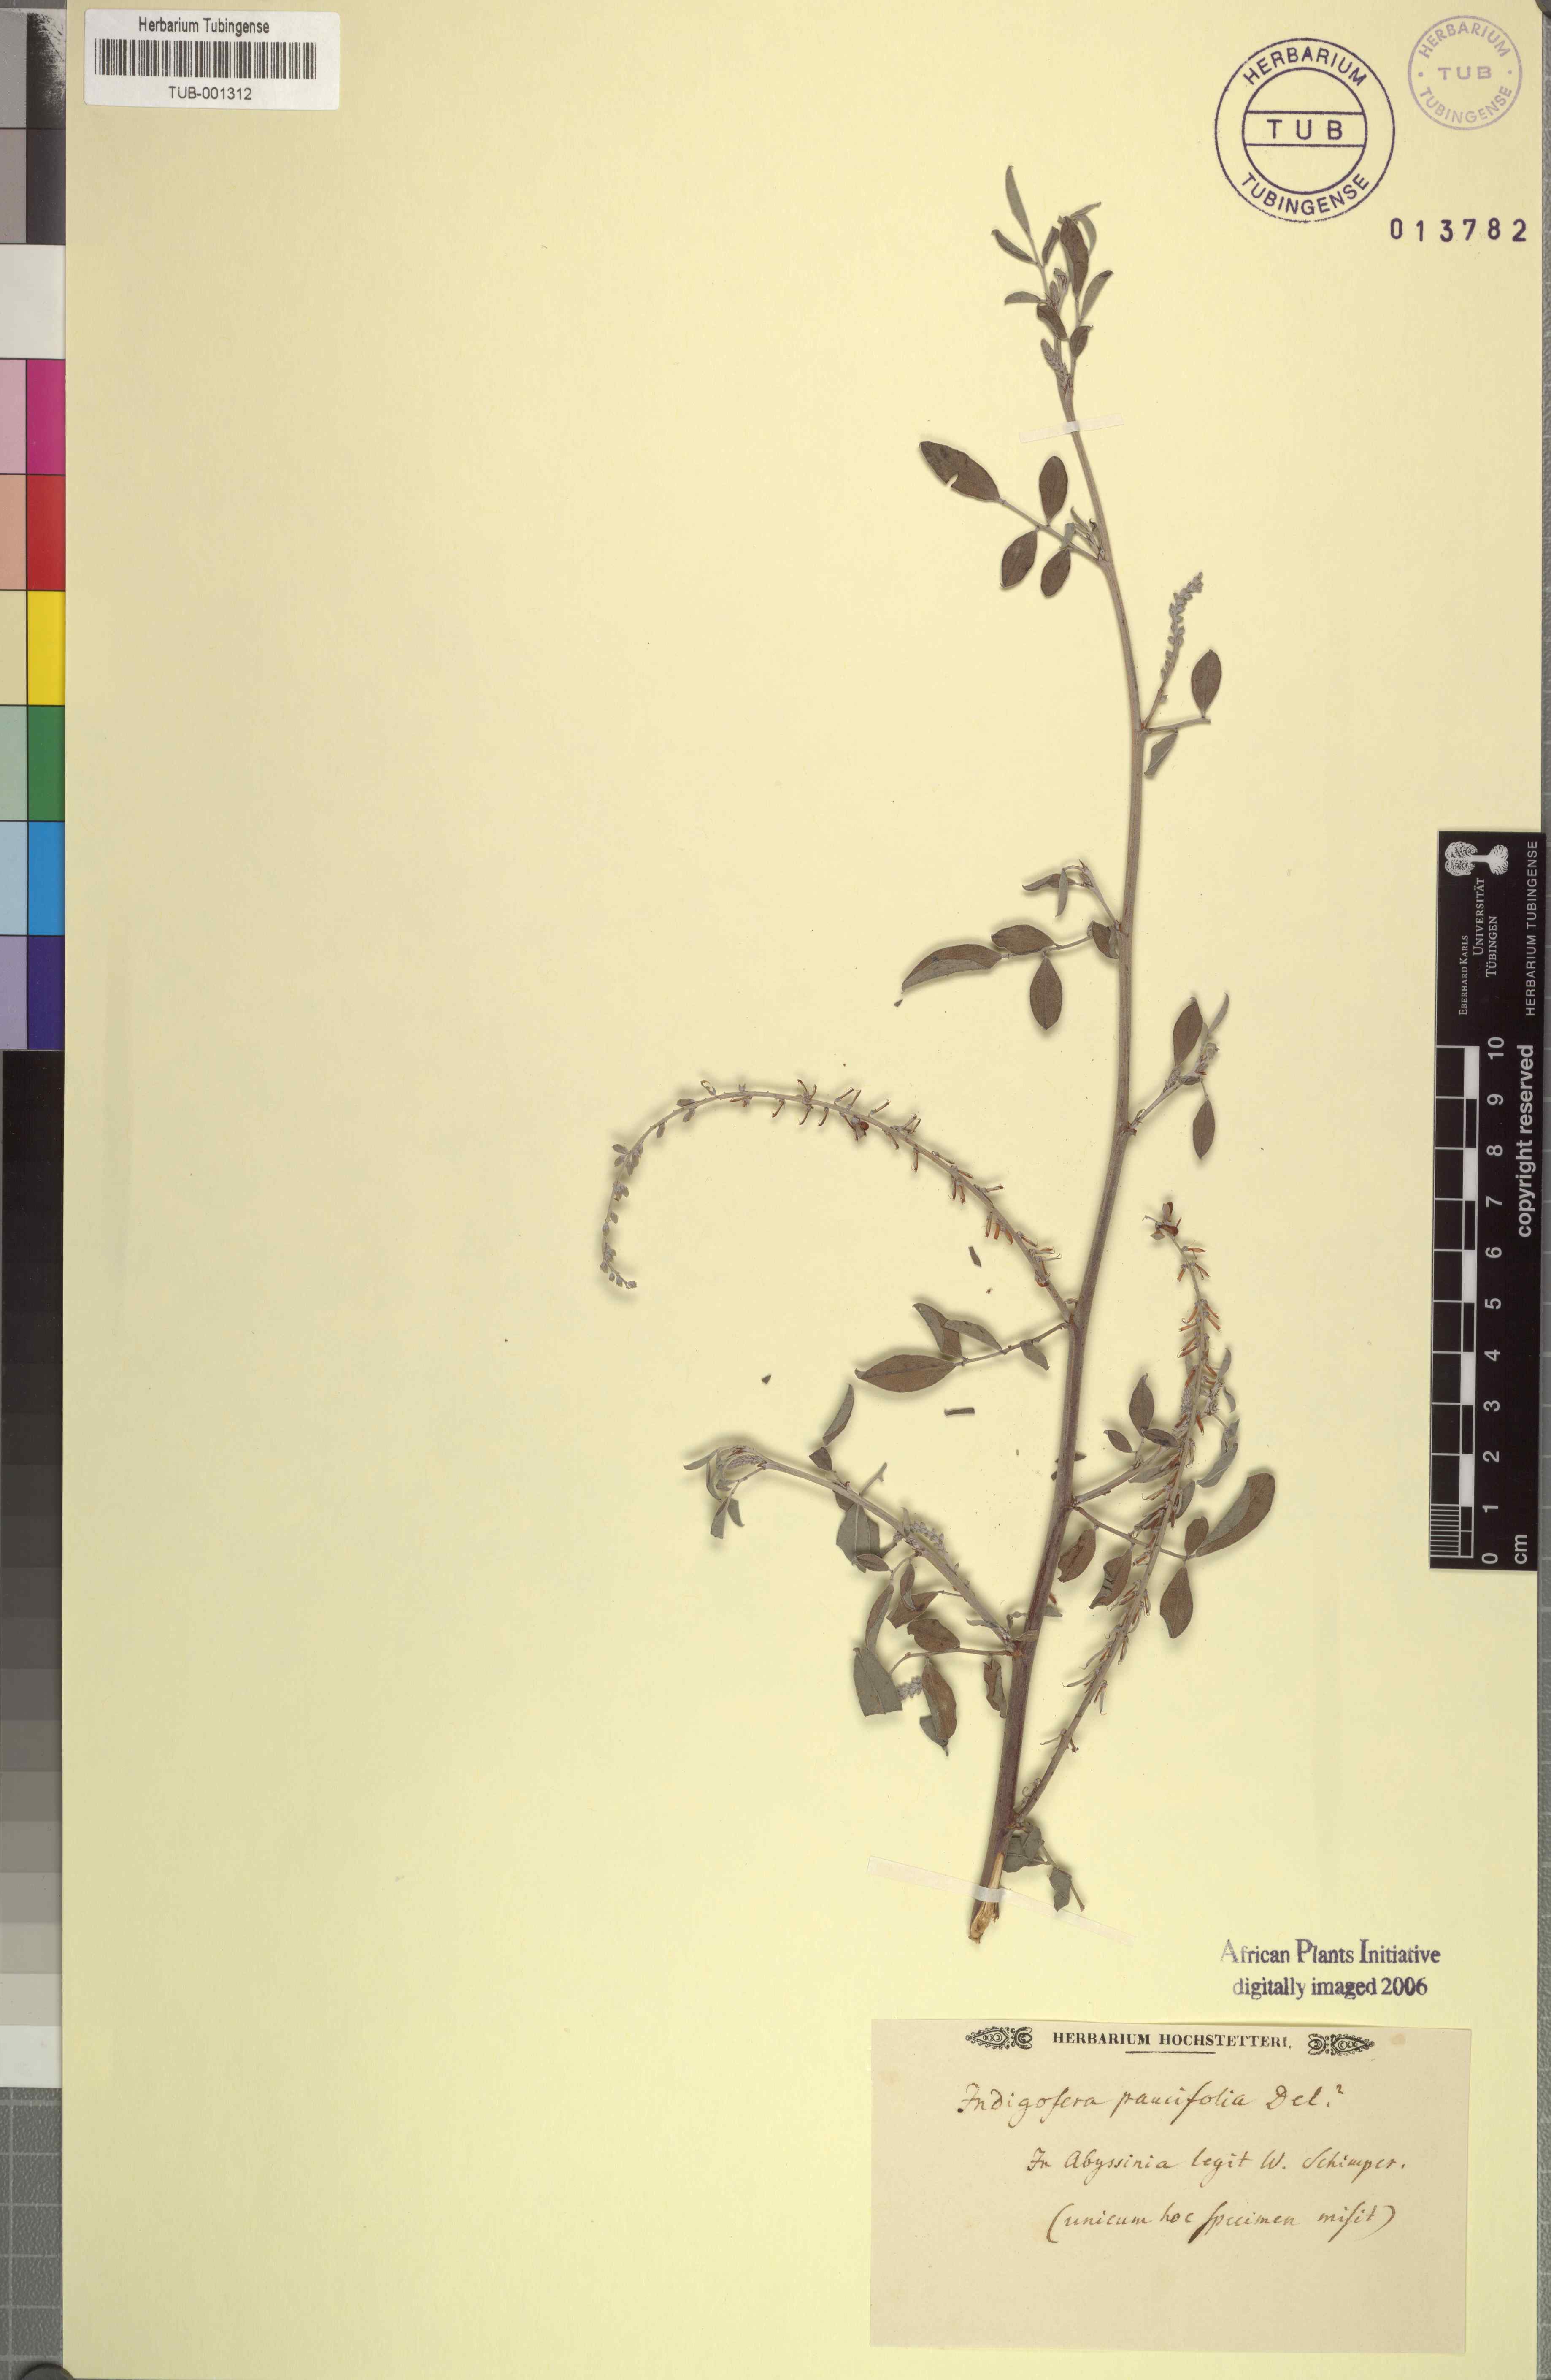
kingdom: Plantae
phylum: Tracheophyta
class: Magnoliopsida
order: Fabales
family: Fabaceae
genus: Indigofera
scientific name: Indigofera oblongifolia
